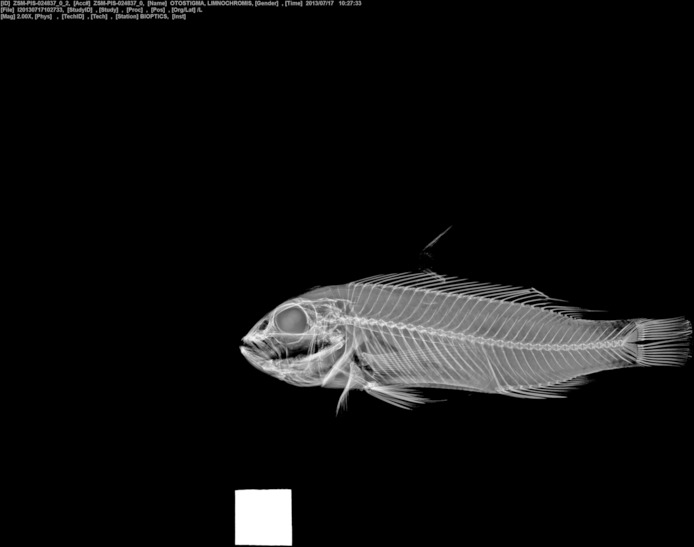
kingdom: Animalia
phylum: Chordata
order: Perciformes
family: Cichlidae
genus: Triglachromis
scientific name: Triglachromis otostigma
